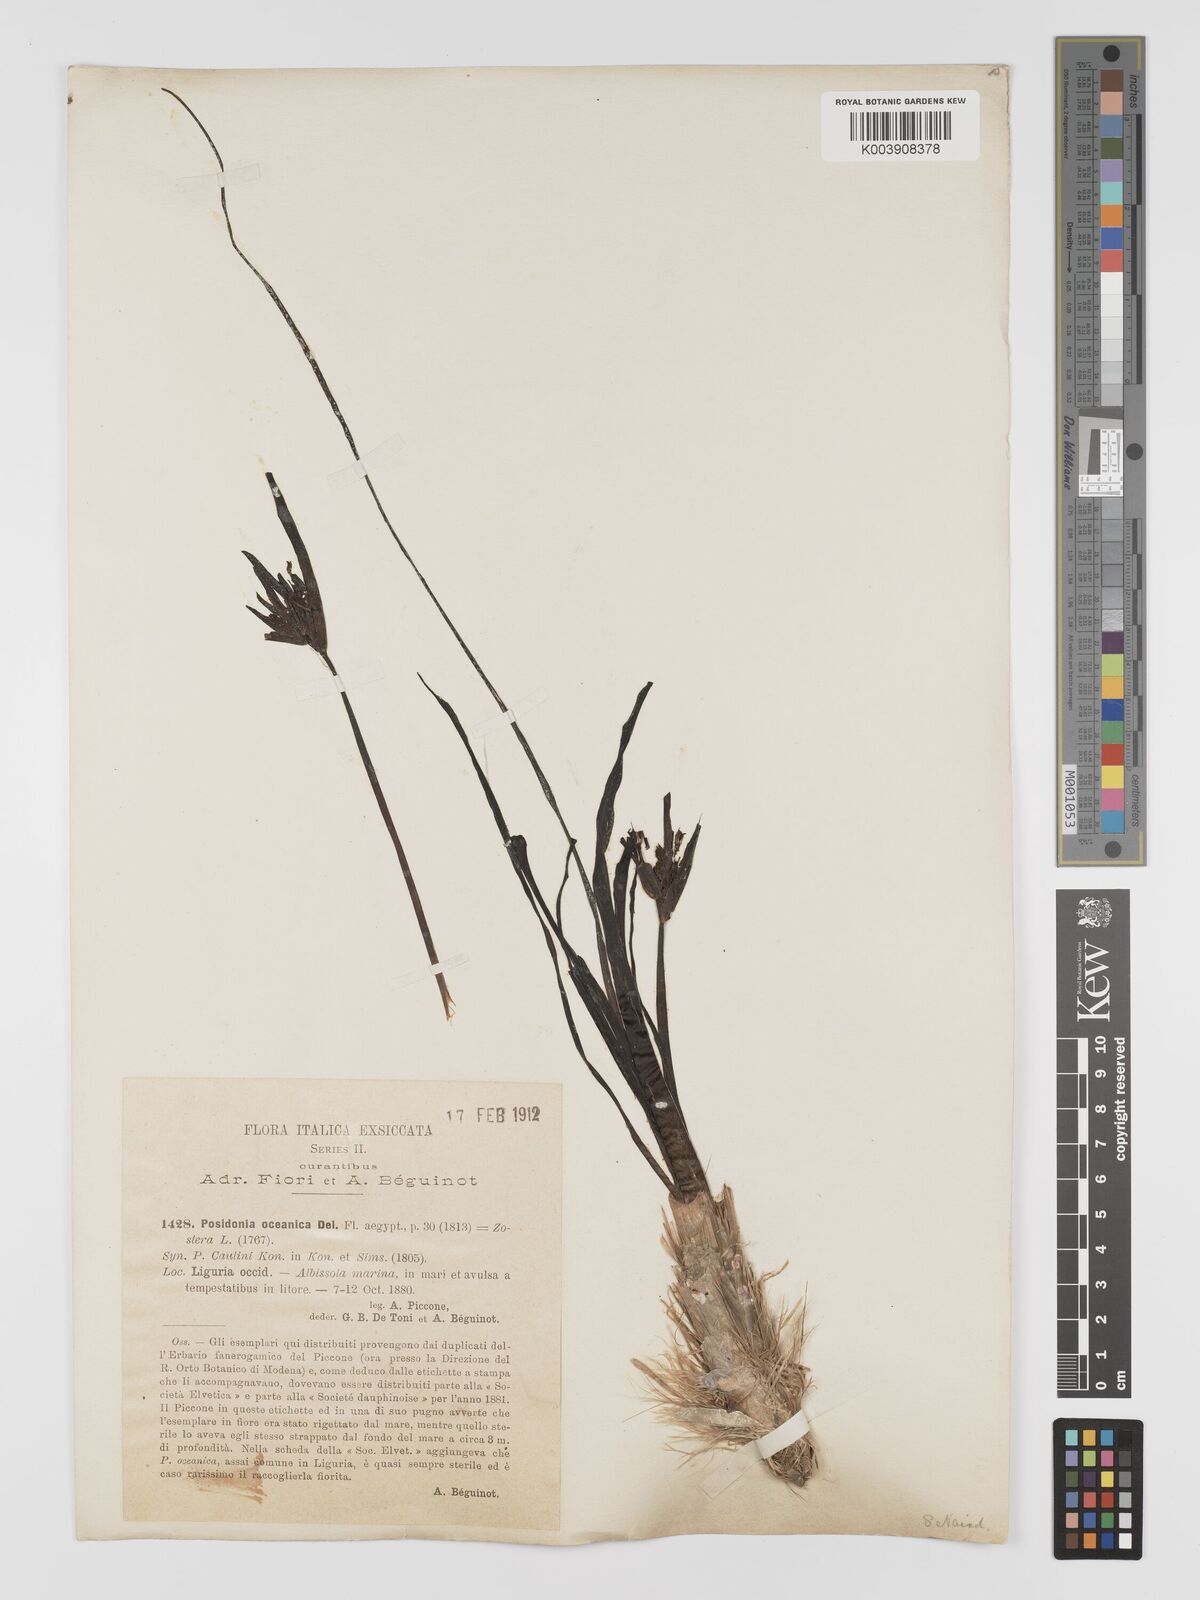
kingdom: Plantae
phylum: Tracheophyta
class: Liliopsida
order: Alismatales
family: Posidoniaceae
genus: Posidonia
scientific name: Posidonia
